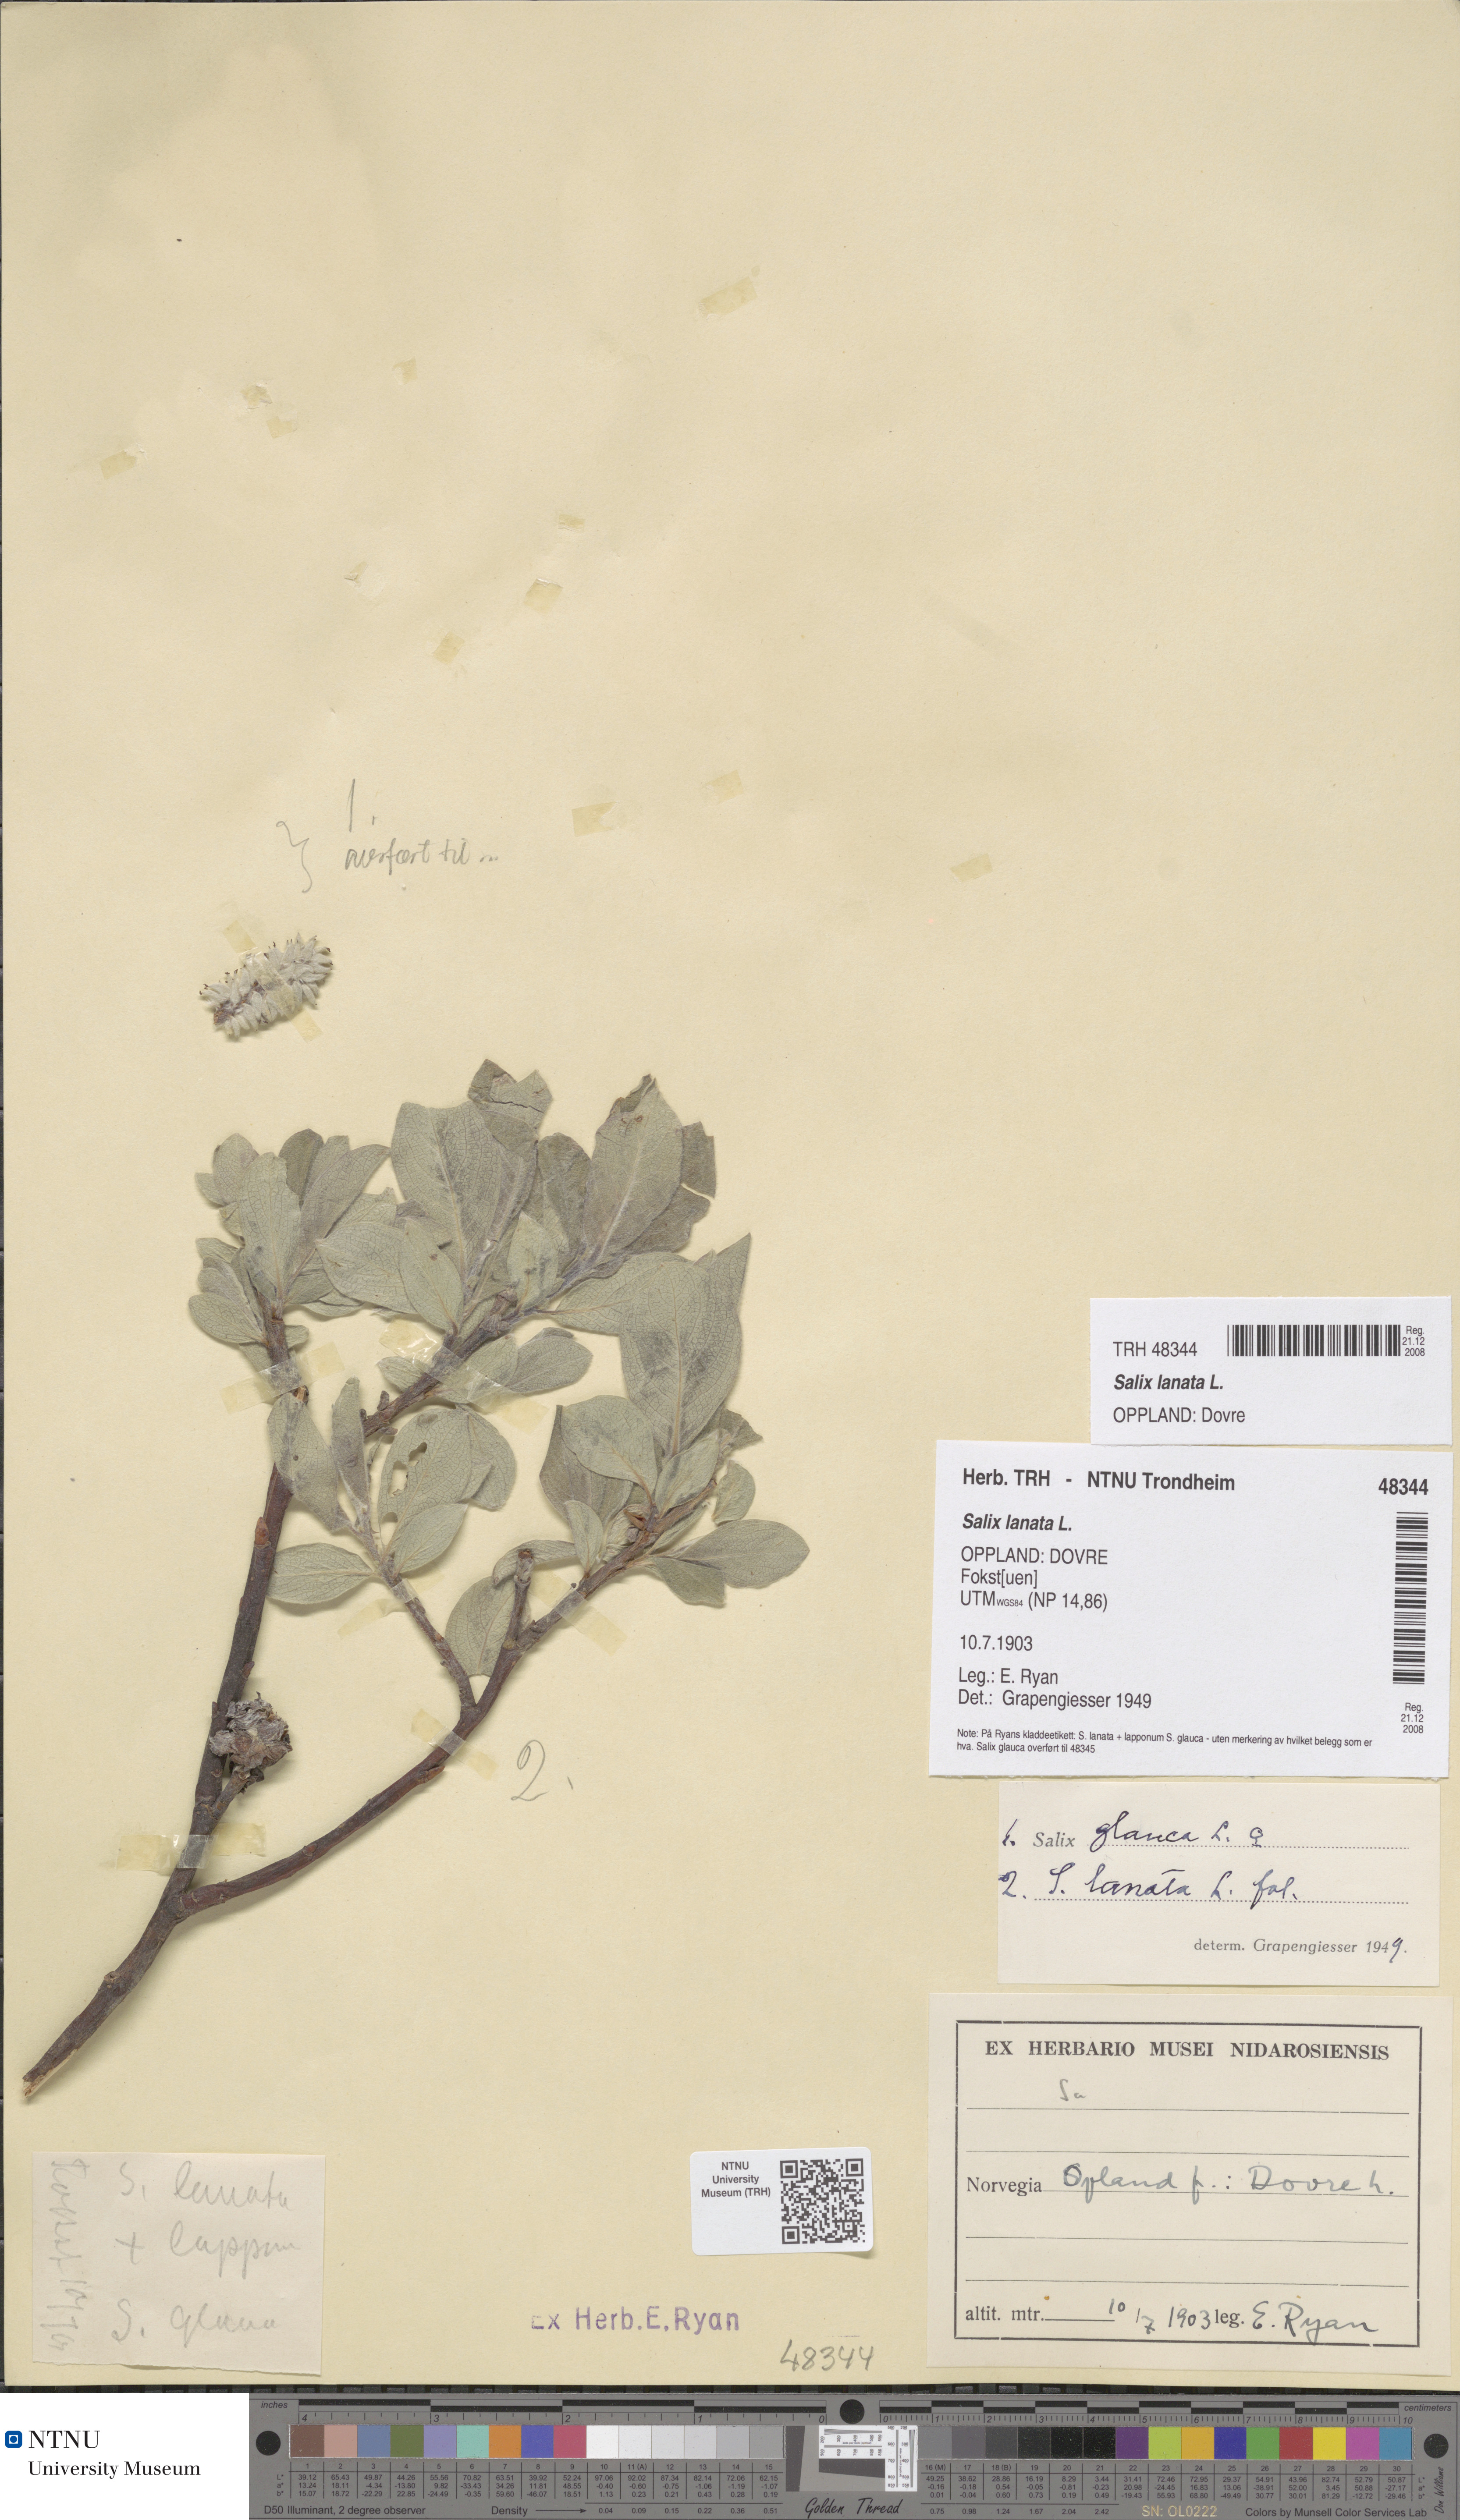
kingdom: Plantae
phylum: Tracheophyta
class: Magnoliopsida
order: Malpighiales
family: Salicaceae
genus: Salix
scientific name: Salix lanata
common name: Woolly willow
